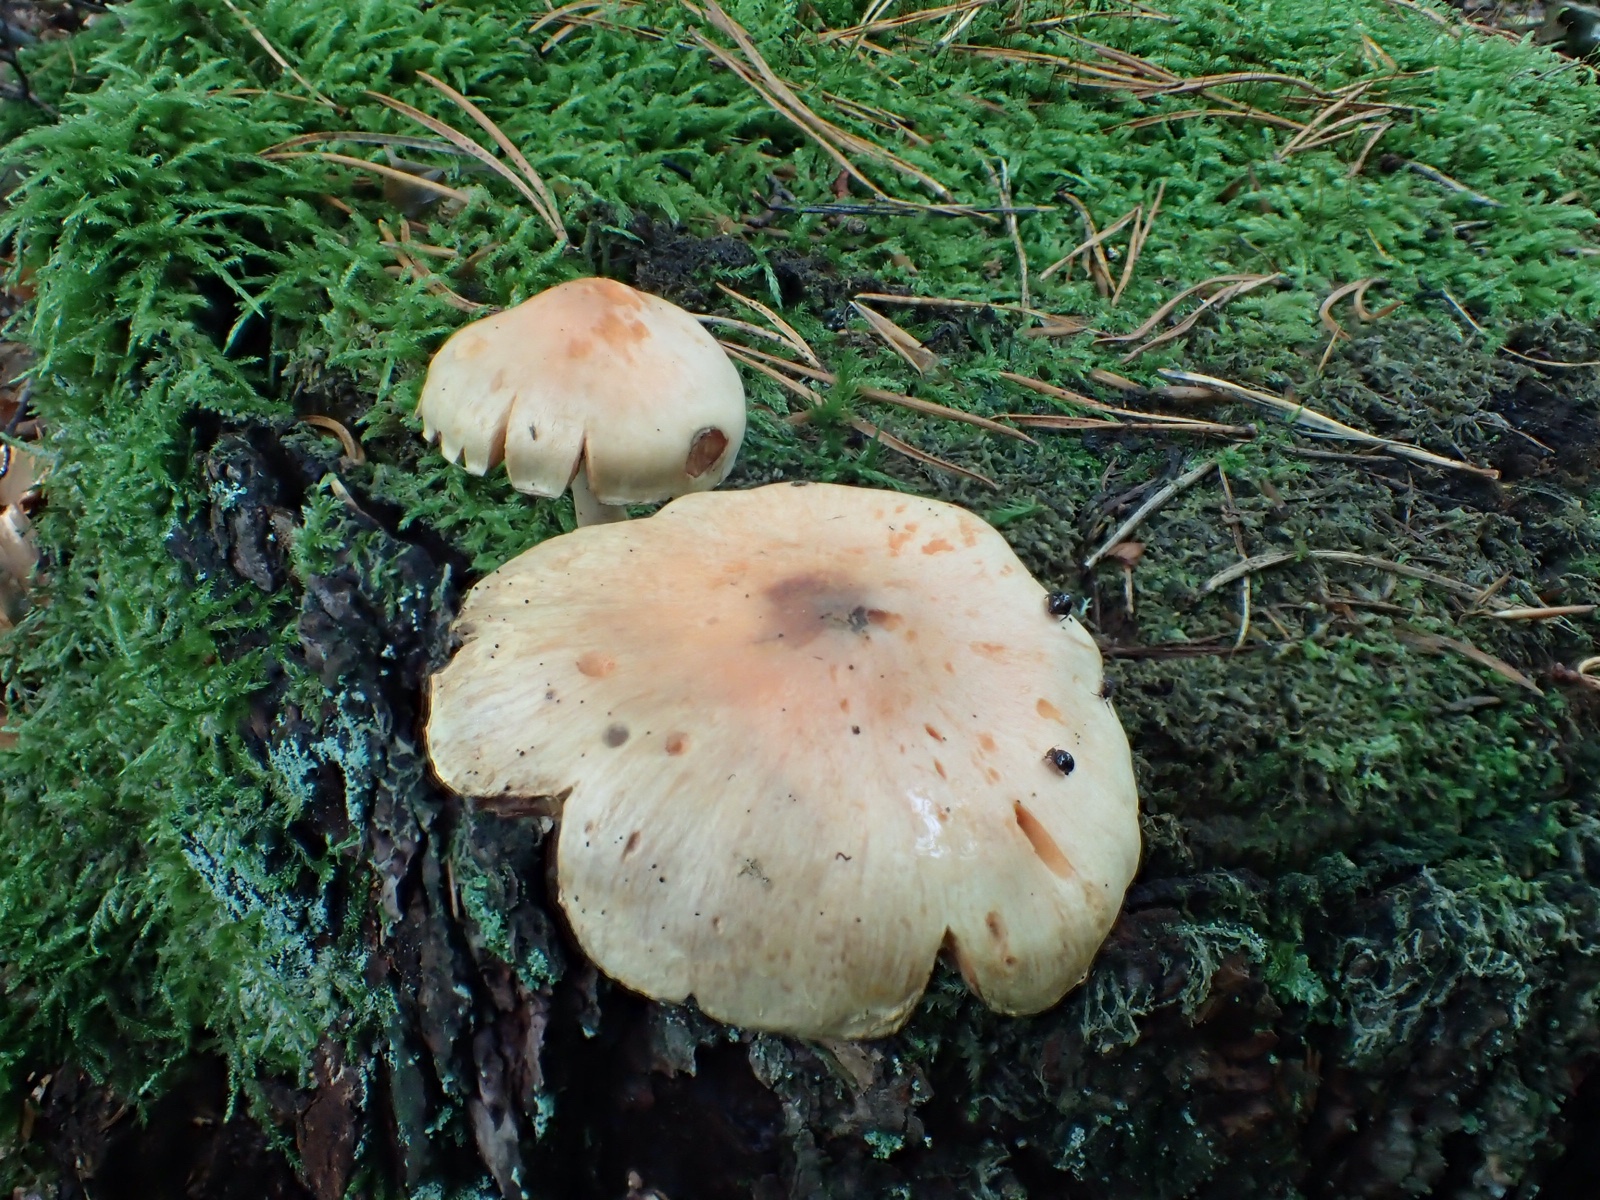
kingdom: Fungi
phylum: Basidiomycota
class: Agaricomycetes
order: Agaricales
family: Strophariaceae
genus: Hypholoma
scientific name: Hypholoma radicosum
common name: pælerods-svovlhat
